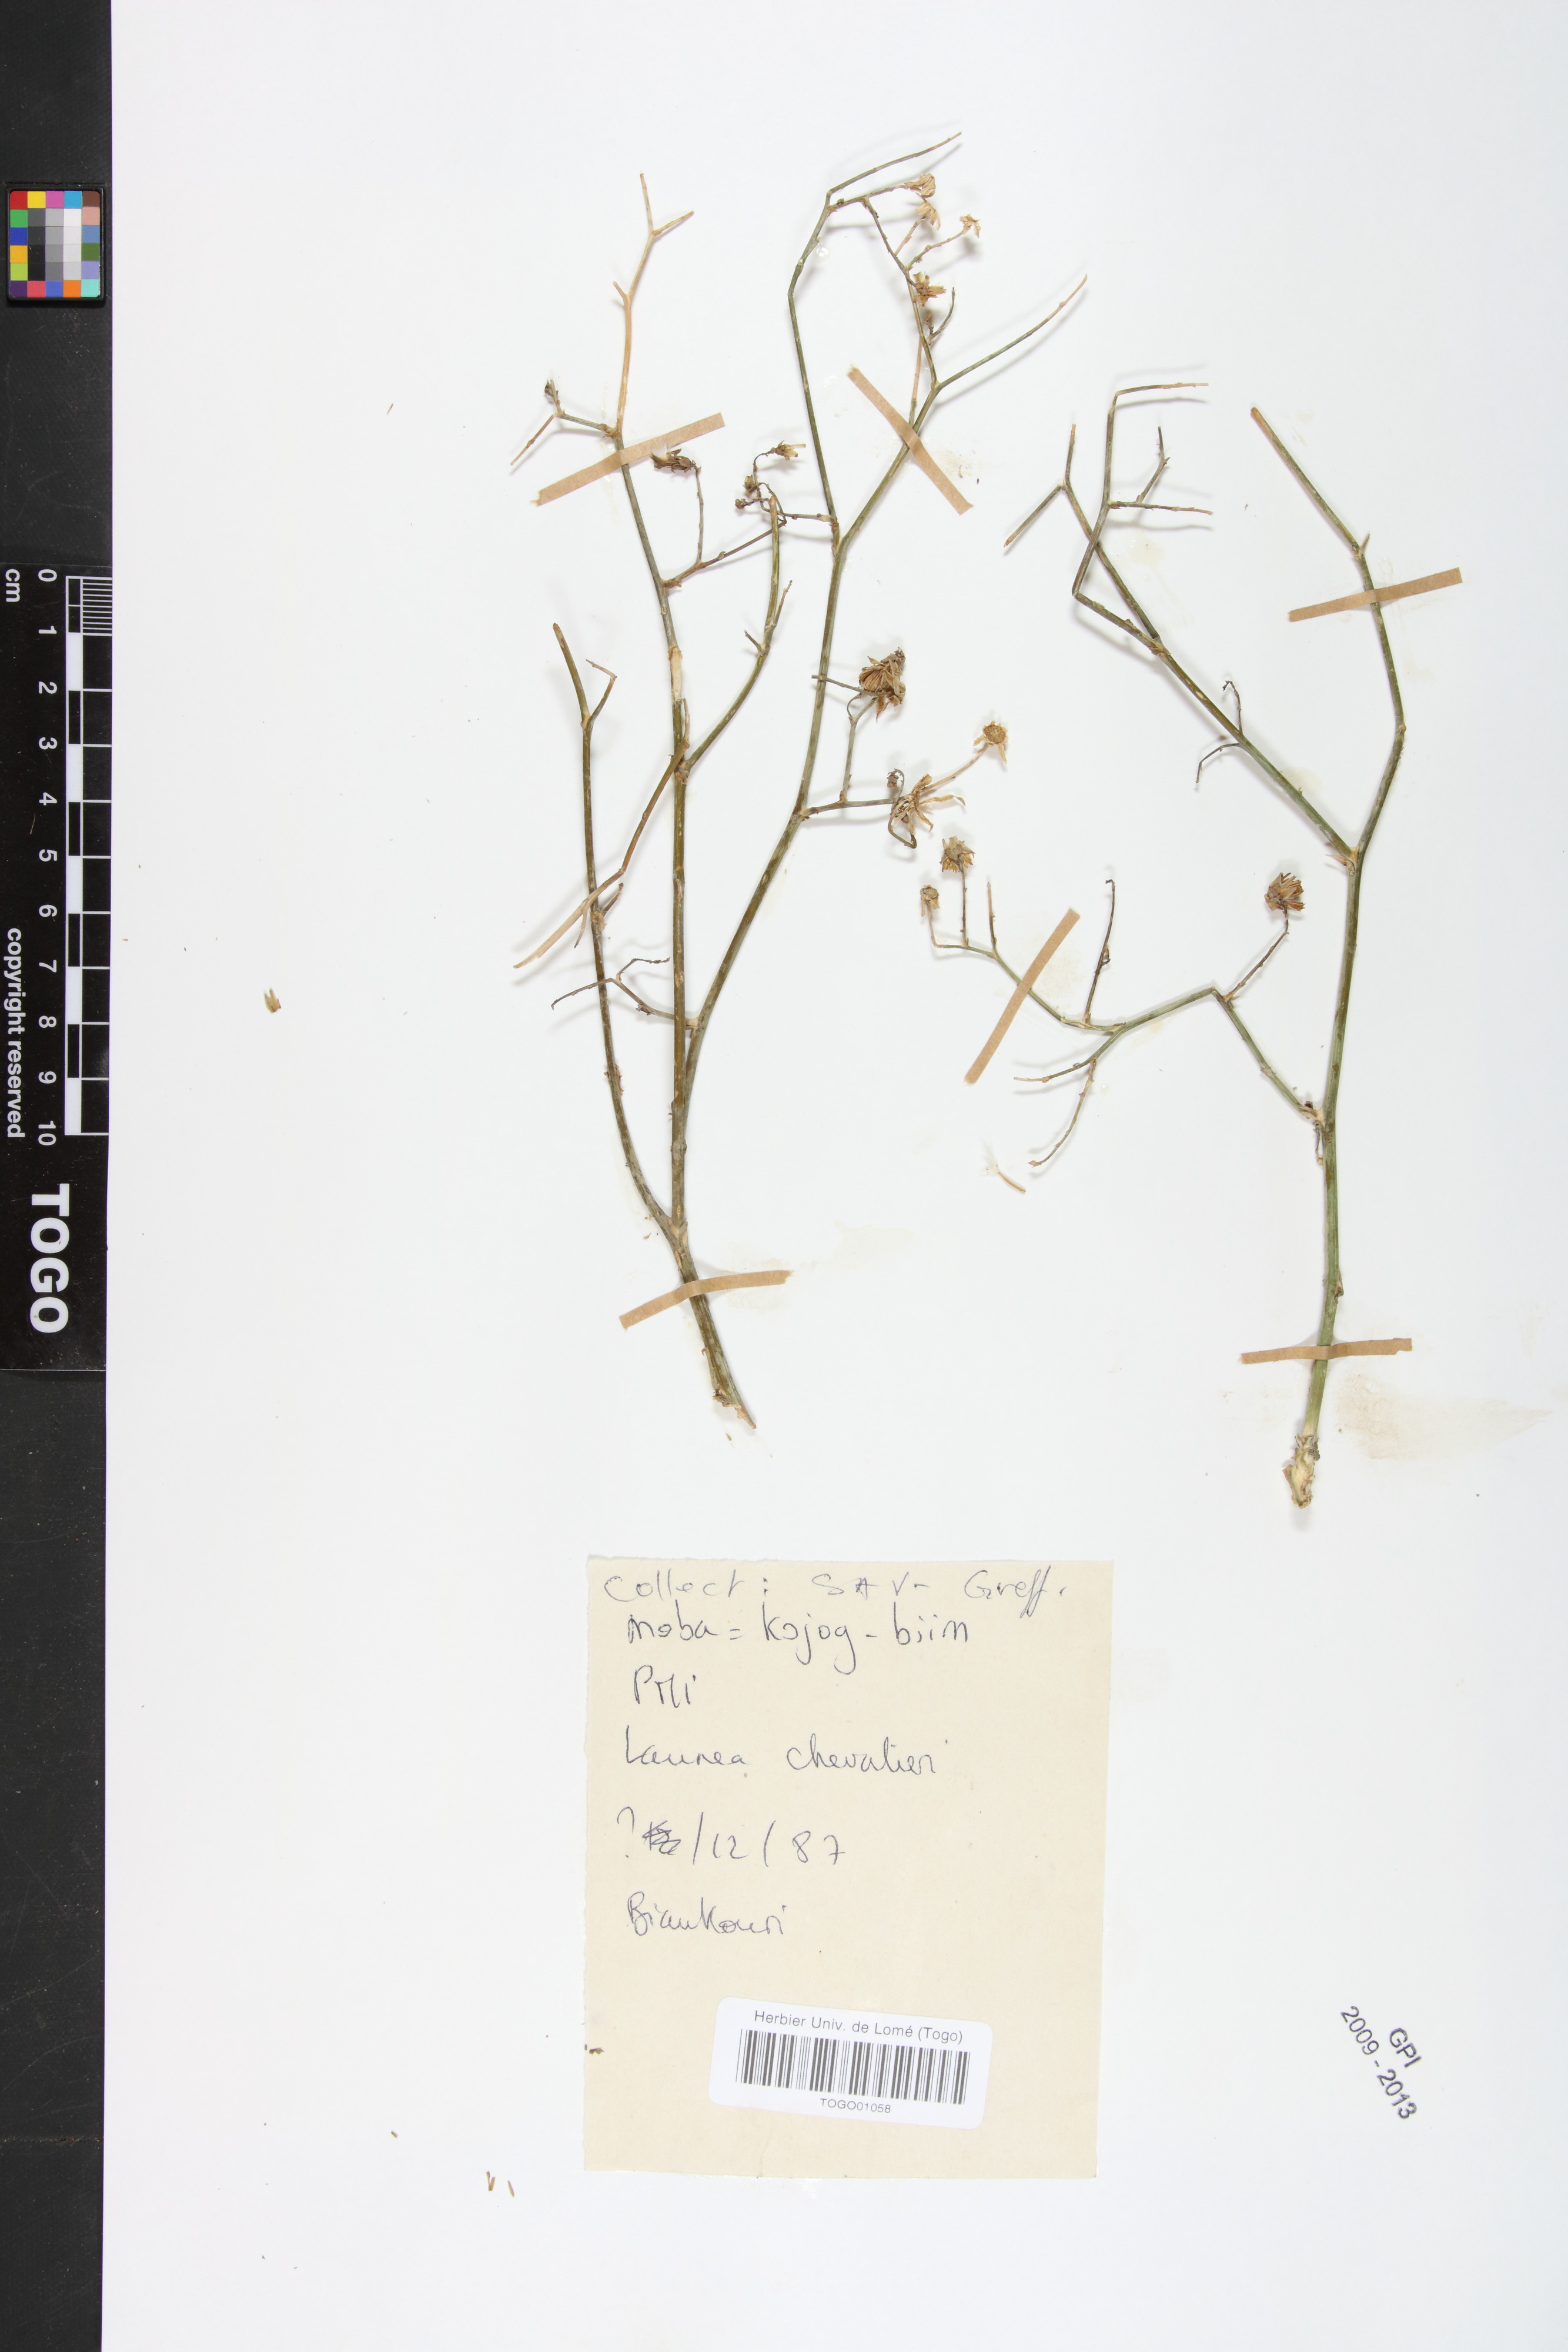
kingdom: Plantae
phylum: Tracheophyta
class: Magnoliopsida
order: Asterales
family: Asteraceae
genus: Launaea
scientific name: Launaea brunneri
